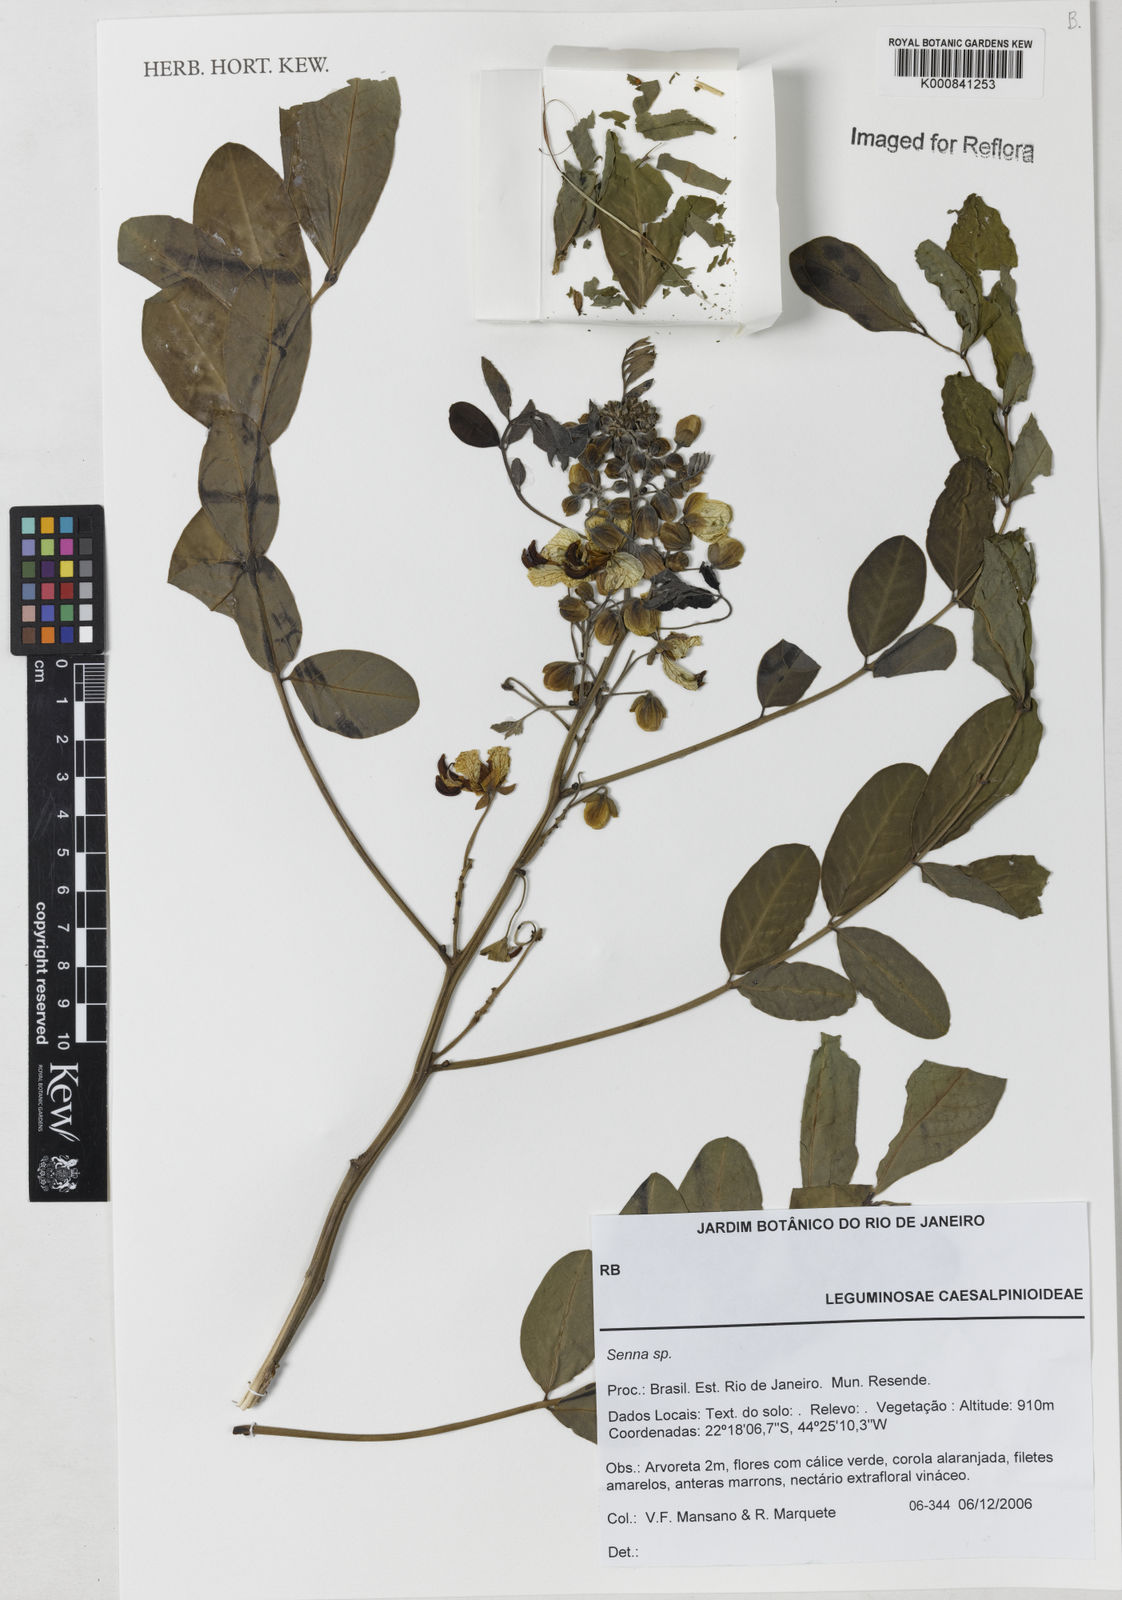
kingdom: Plantae
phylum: Tracheophyta
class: Magnoliopsida
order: Fabales
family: Fabaceae
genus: Senna
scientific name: Senna
